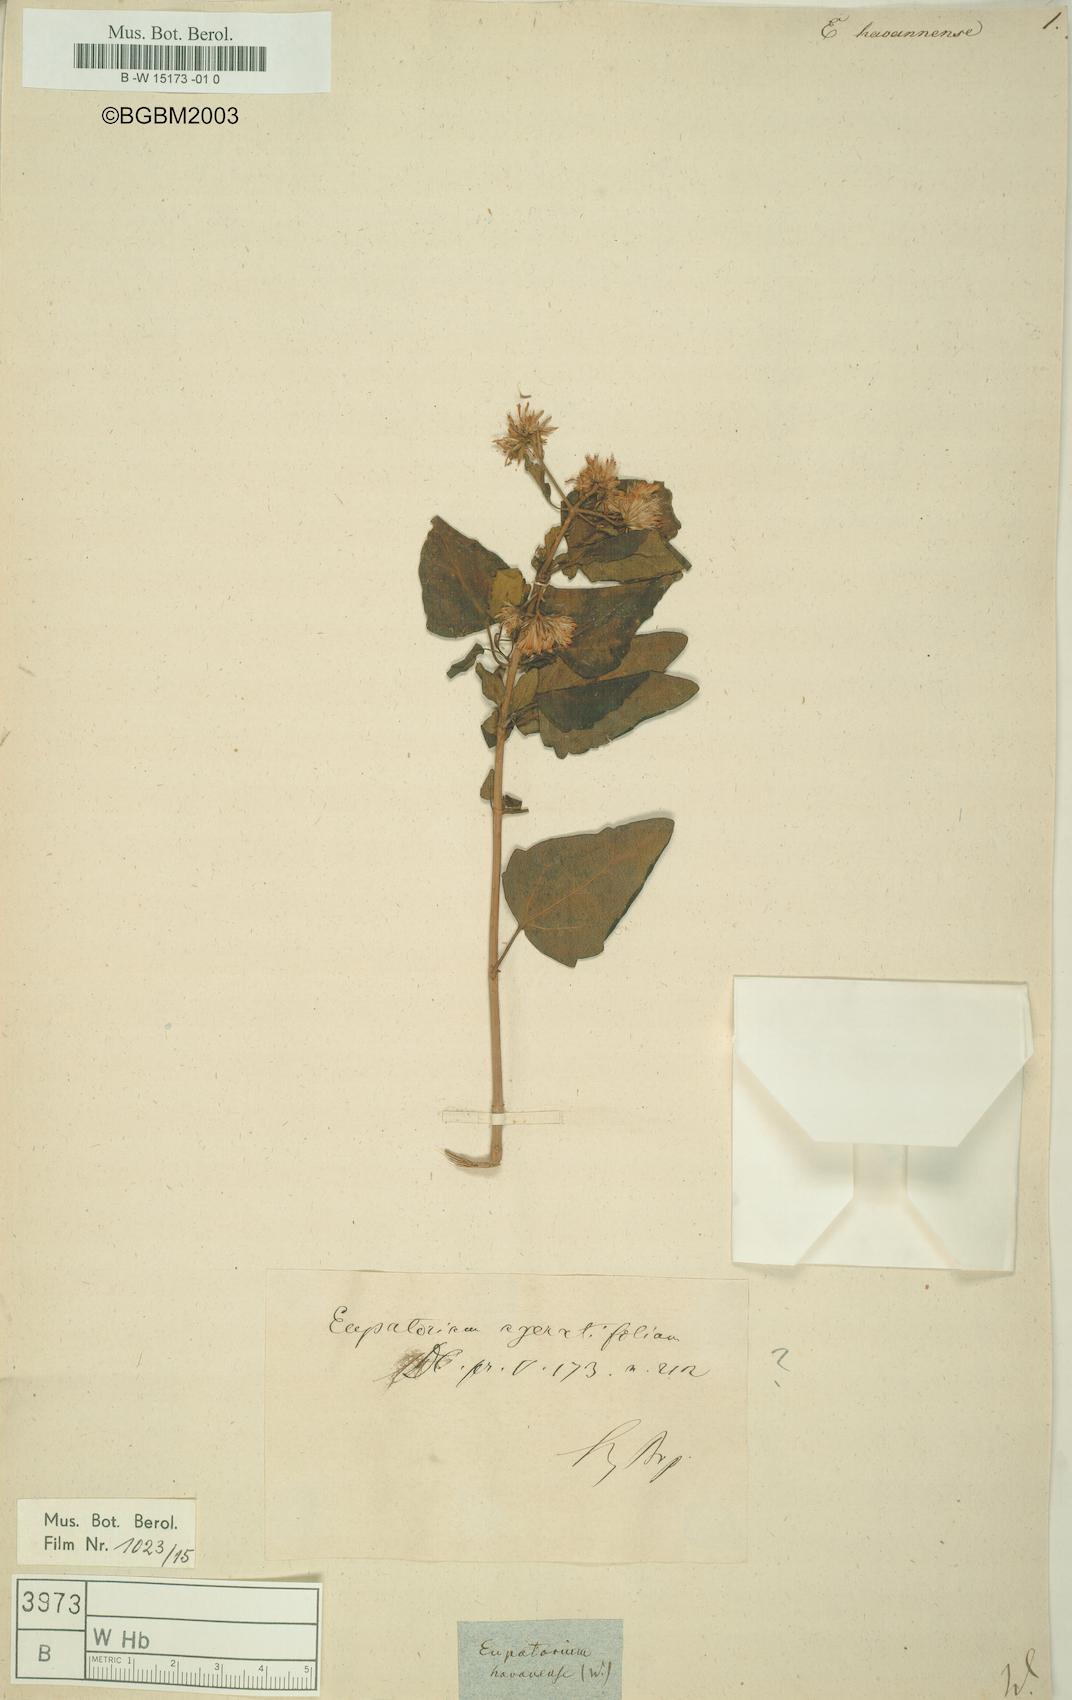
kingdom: Plantae
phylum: Tracheophyta
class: Magnoliopsida
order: Asterales
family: Asteraceae
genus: Ageratina
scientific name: Ageratina havanensis
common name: Havana snakeroot
